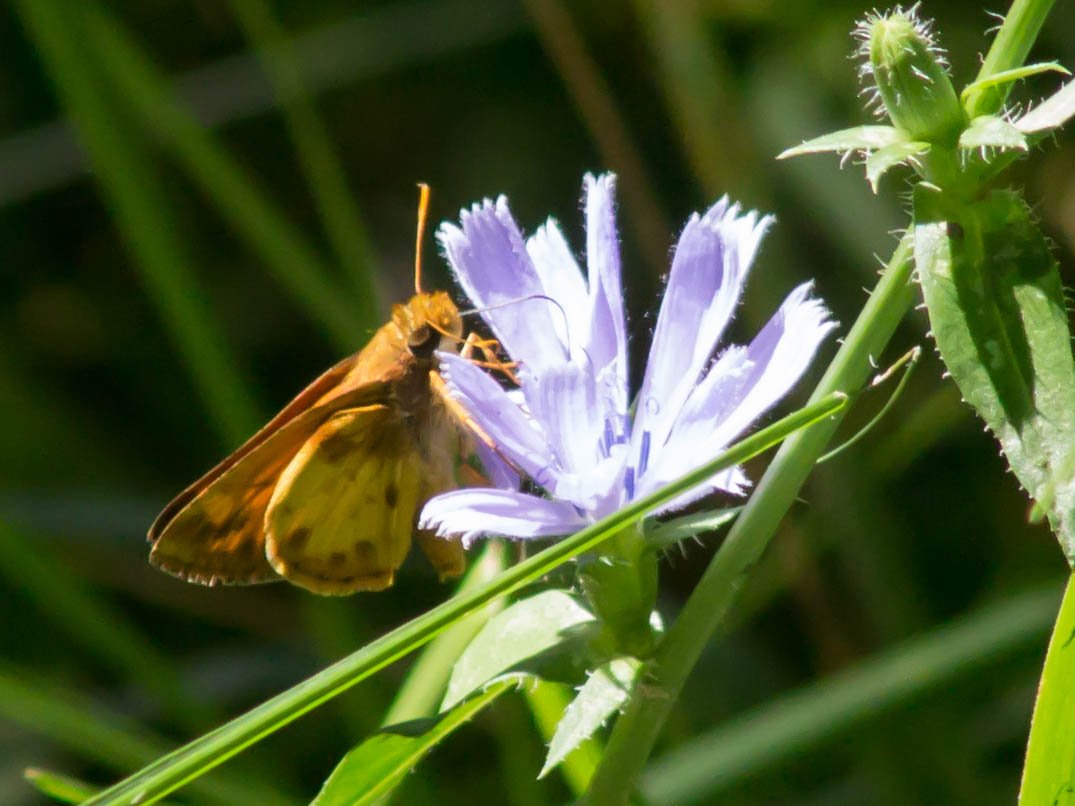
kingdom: Animalia
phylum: Arthropoda
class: Insecta
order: Lepidoptera
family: Hesperiidae
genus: Lon
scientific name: Lon zabulon
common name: Zabulon Skipper
